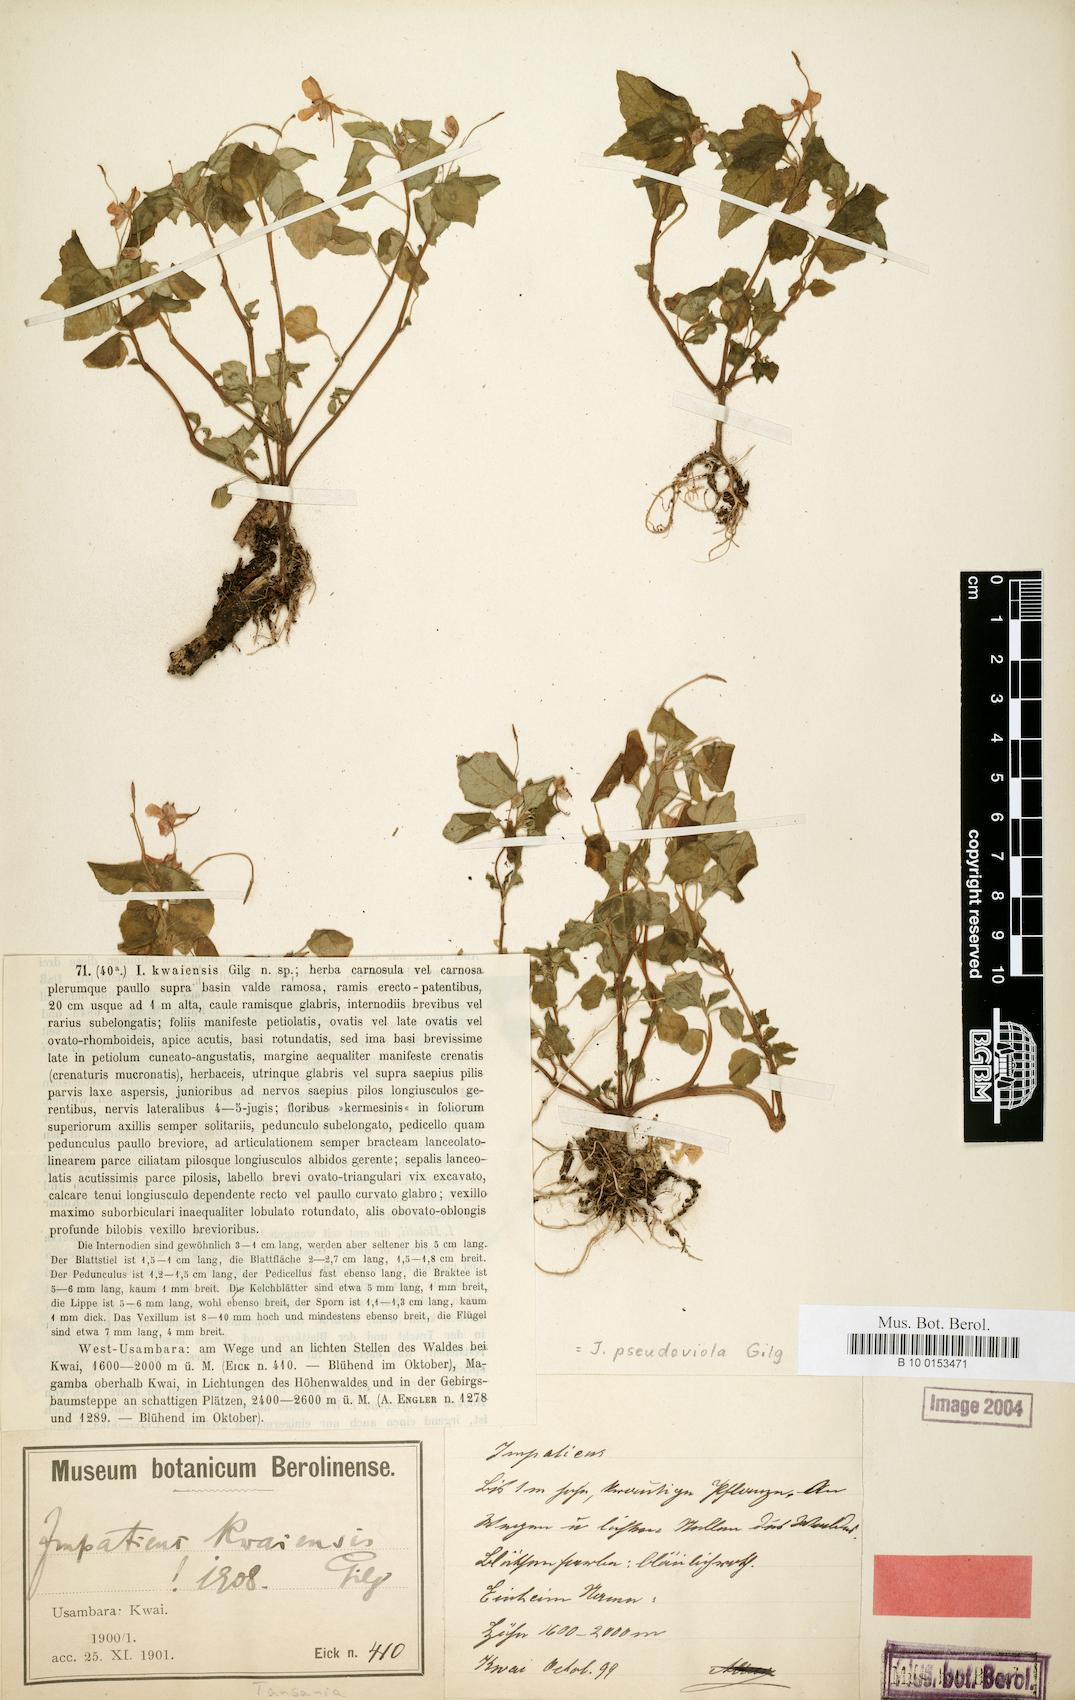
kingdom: Plantae
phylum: Tracheophyta
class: Magnoliopsida
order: Ericales
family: Balsaminaceae
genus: Impatiens
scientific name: Impatiens pseudoviola
